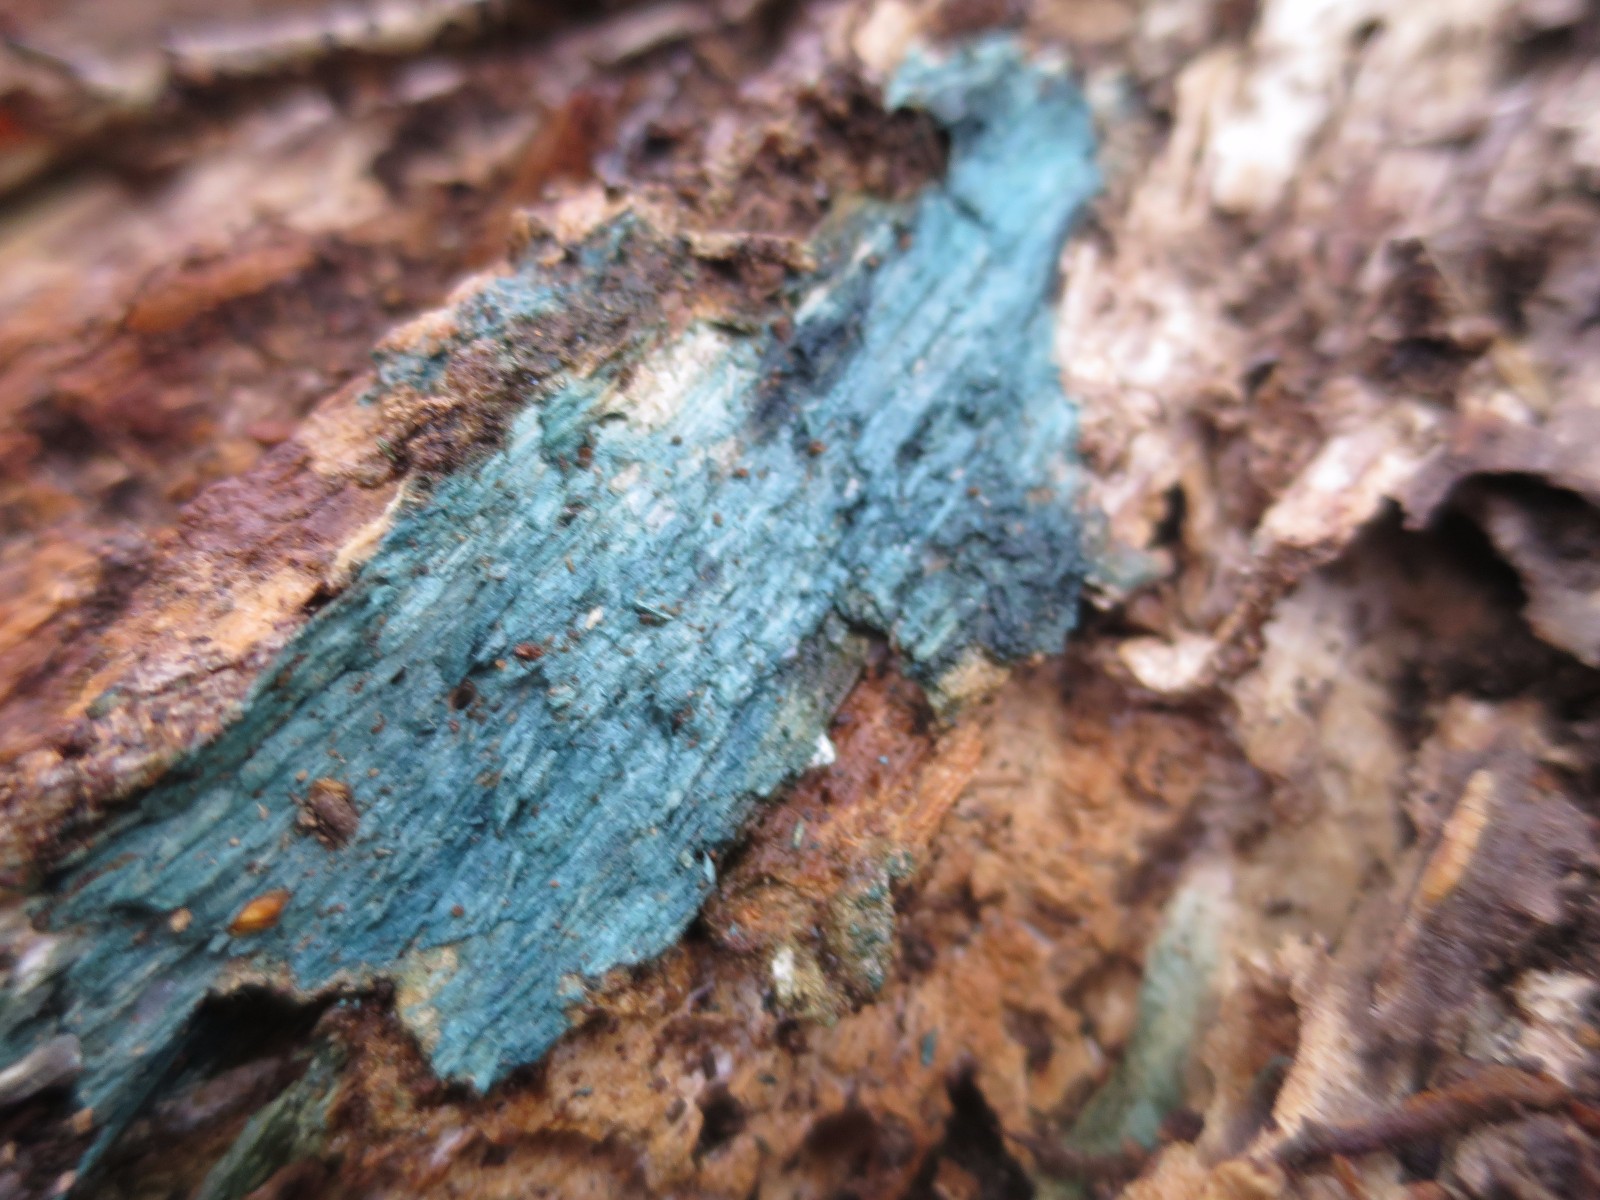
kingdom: Fungi
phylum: Ascomycota
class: Leotiomycetes
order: Helotiales
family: Chlorociboriaceae
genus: Chlorociboria
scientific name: Chlorociboria aeruginascens
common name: almindelig grønskive
